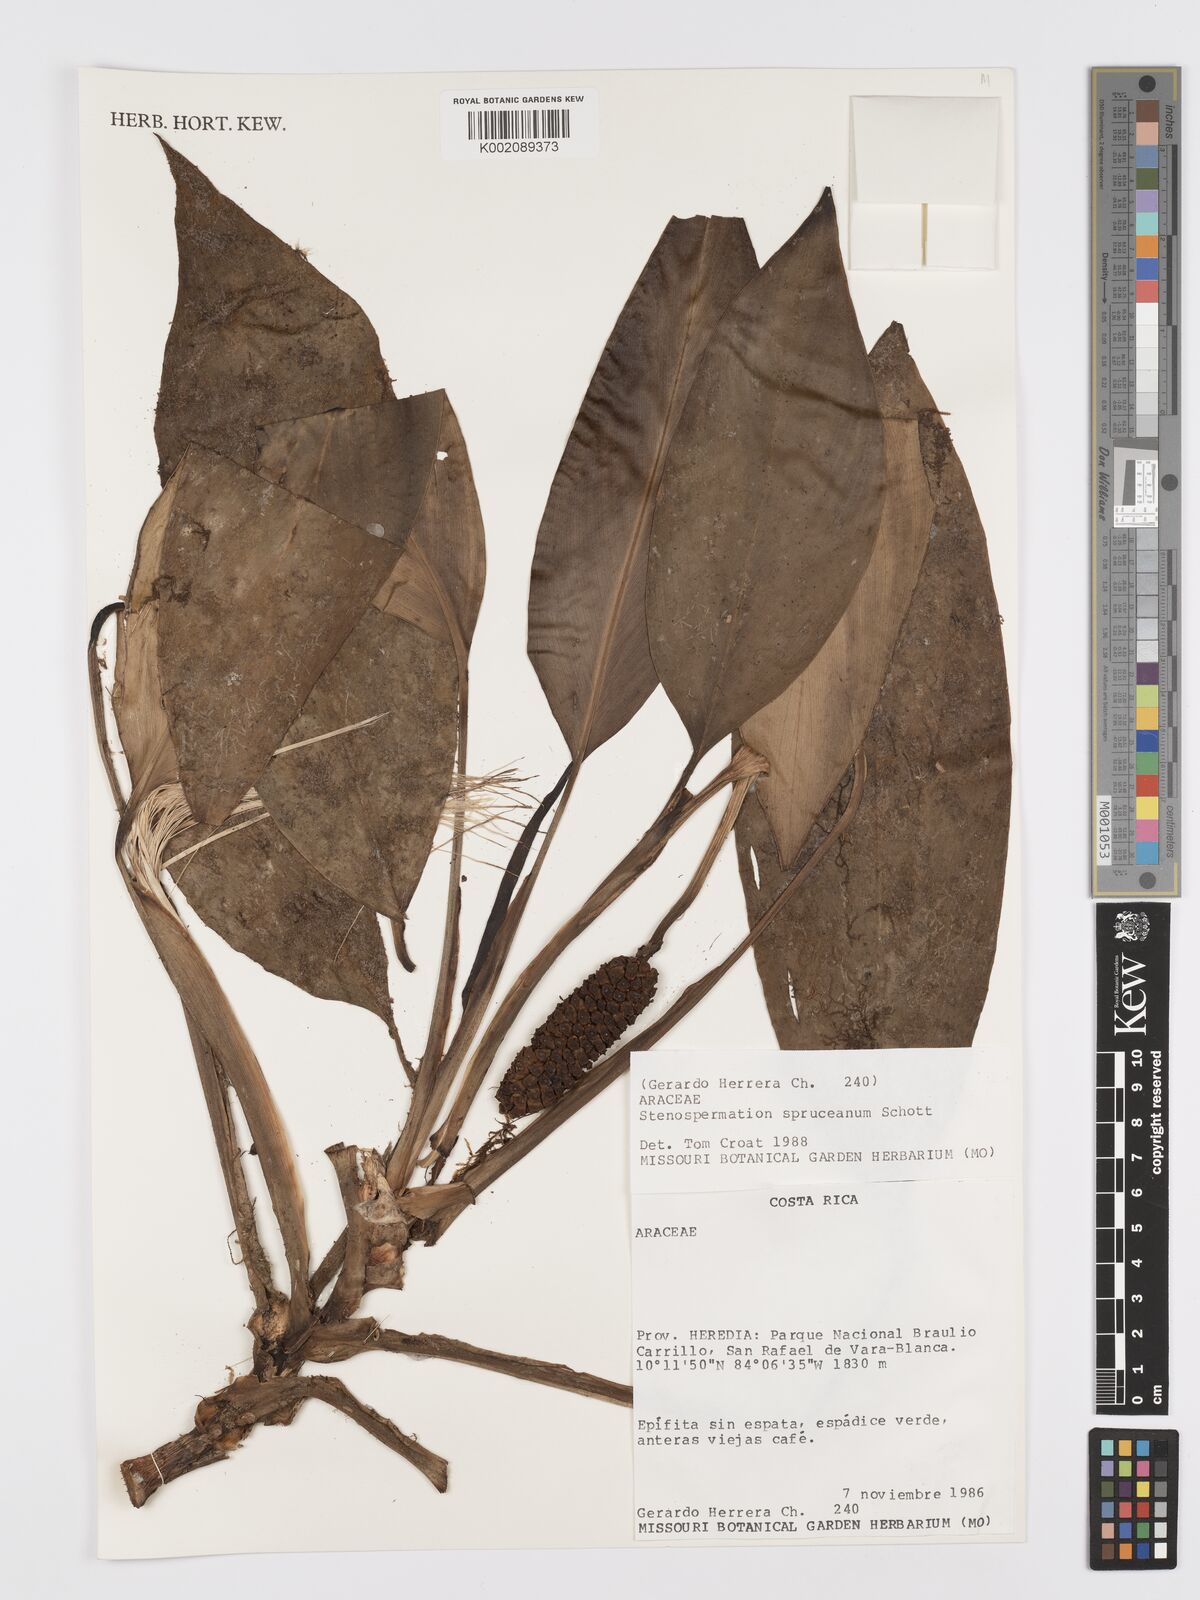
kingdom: Plantae
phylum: Tracheophyta
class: Liliopsida
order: Alismatales
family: Araceae
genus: Stenospermation
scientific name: Stenospermation spruceanum
